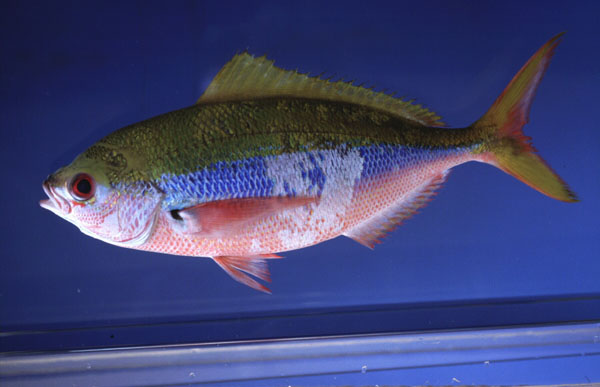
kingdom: Animalia
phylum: Chordata
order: Perciformes
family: Caesionidae
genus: Caesio
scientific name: Caesio xanthonota
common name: Yellowback fusilier
